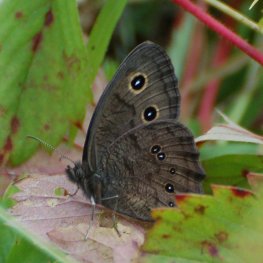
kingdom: Animalia
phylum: Arthropoda
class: Insecta
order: Lepidoptera
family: Nymphalidae
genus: Cercyonis
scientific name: Cercyonis pegala
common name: Common Wood-Nymph
